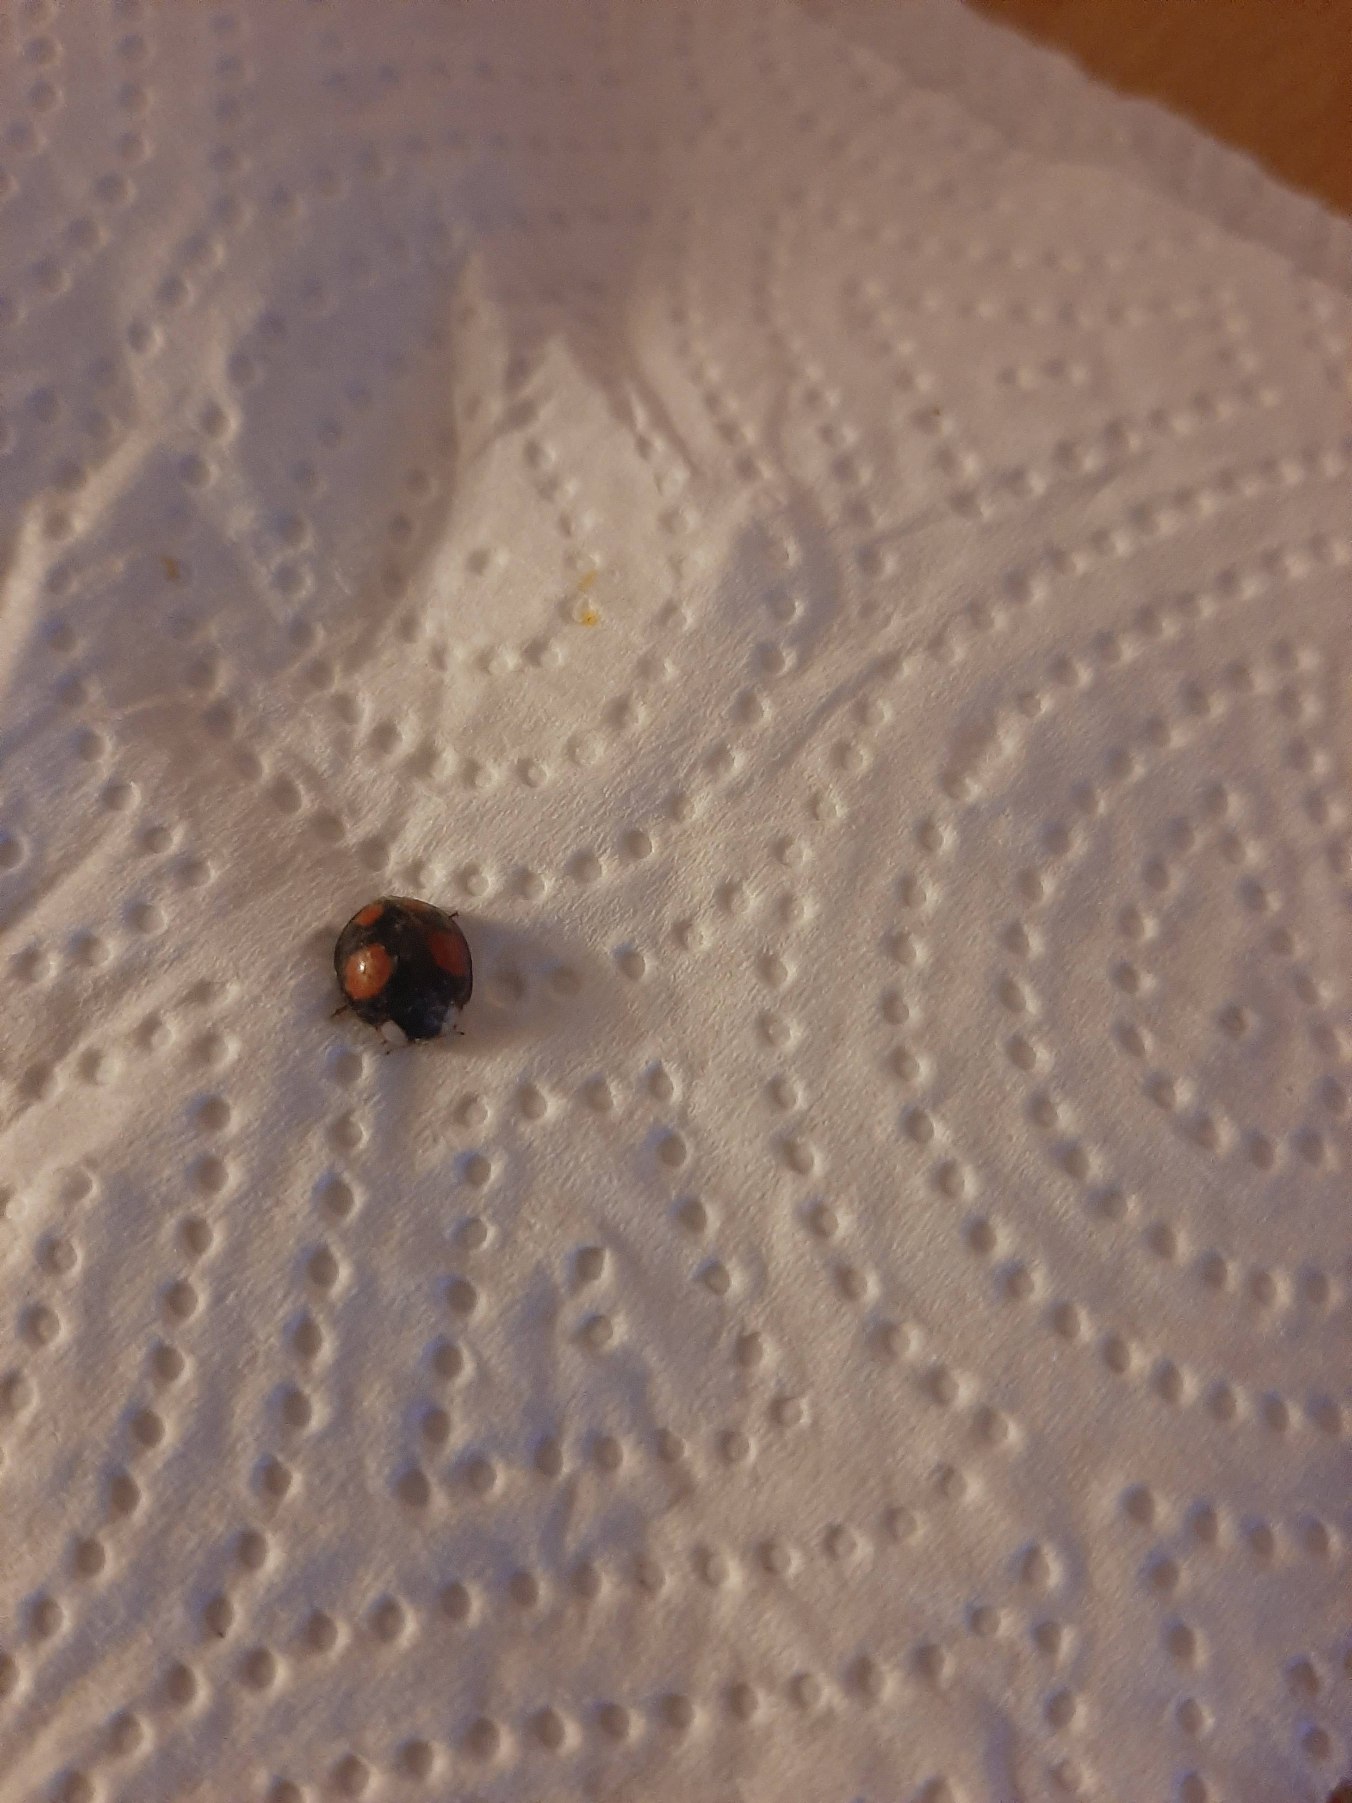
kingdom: Animalia
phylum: Arthropoda
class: Insecta
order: Coleoptera
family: Coccinellidae
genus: Harmonia
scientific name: Harmonia axyridis
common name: Harlekinmariehøne
